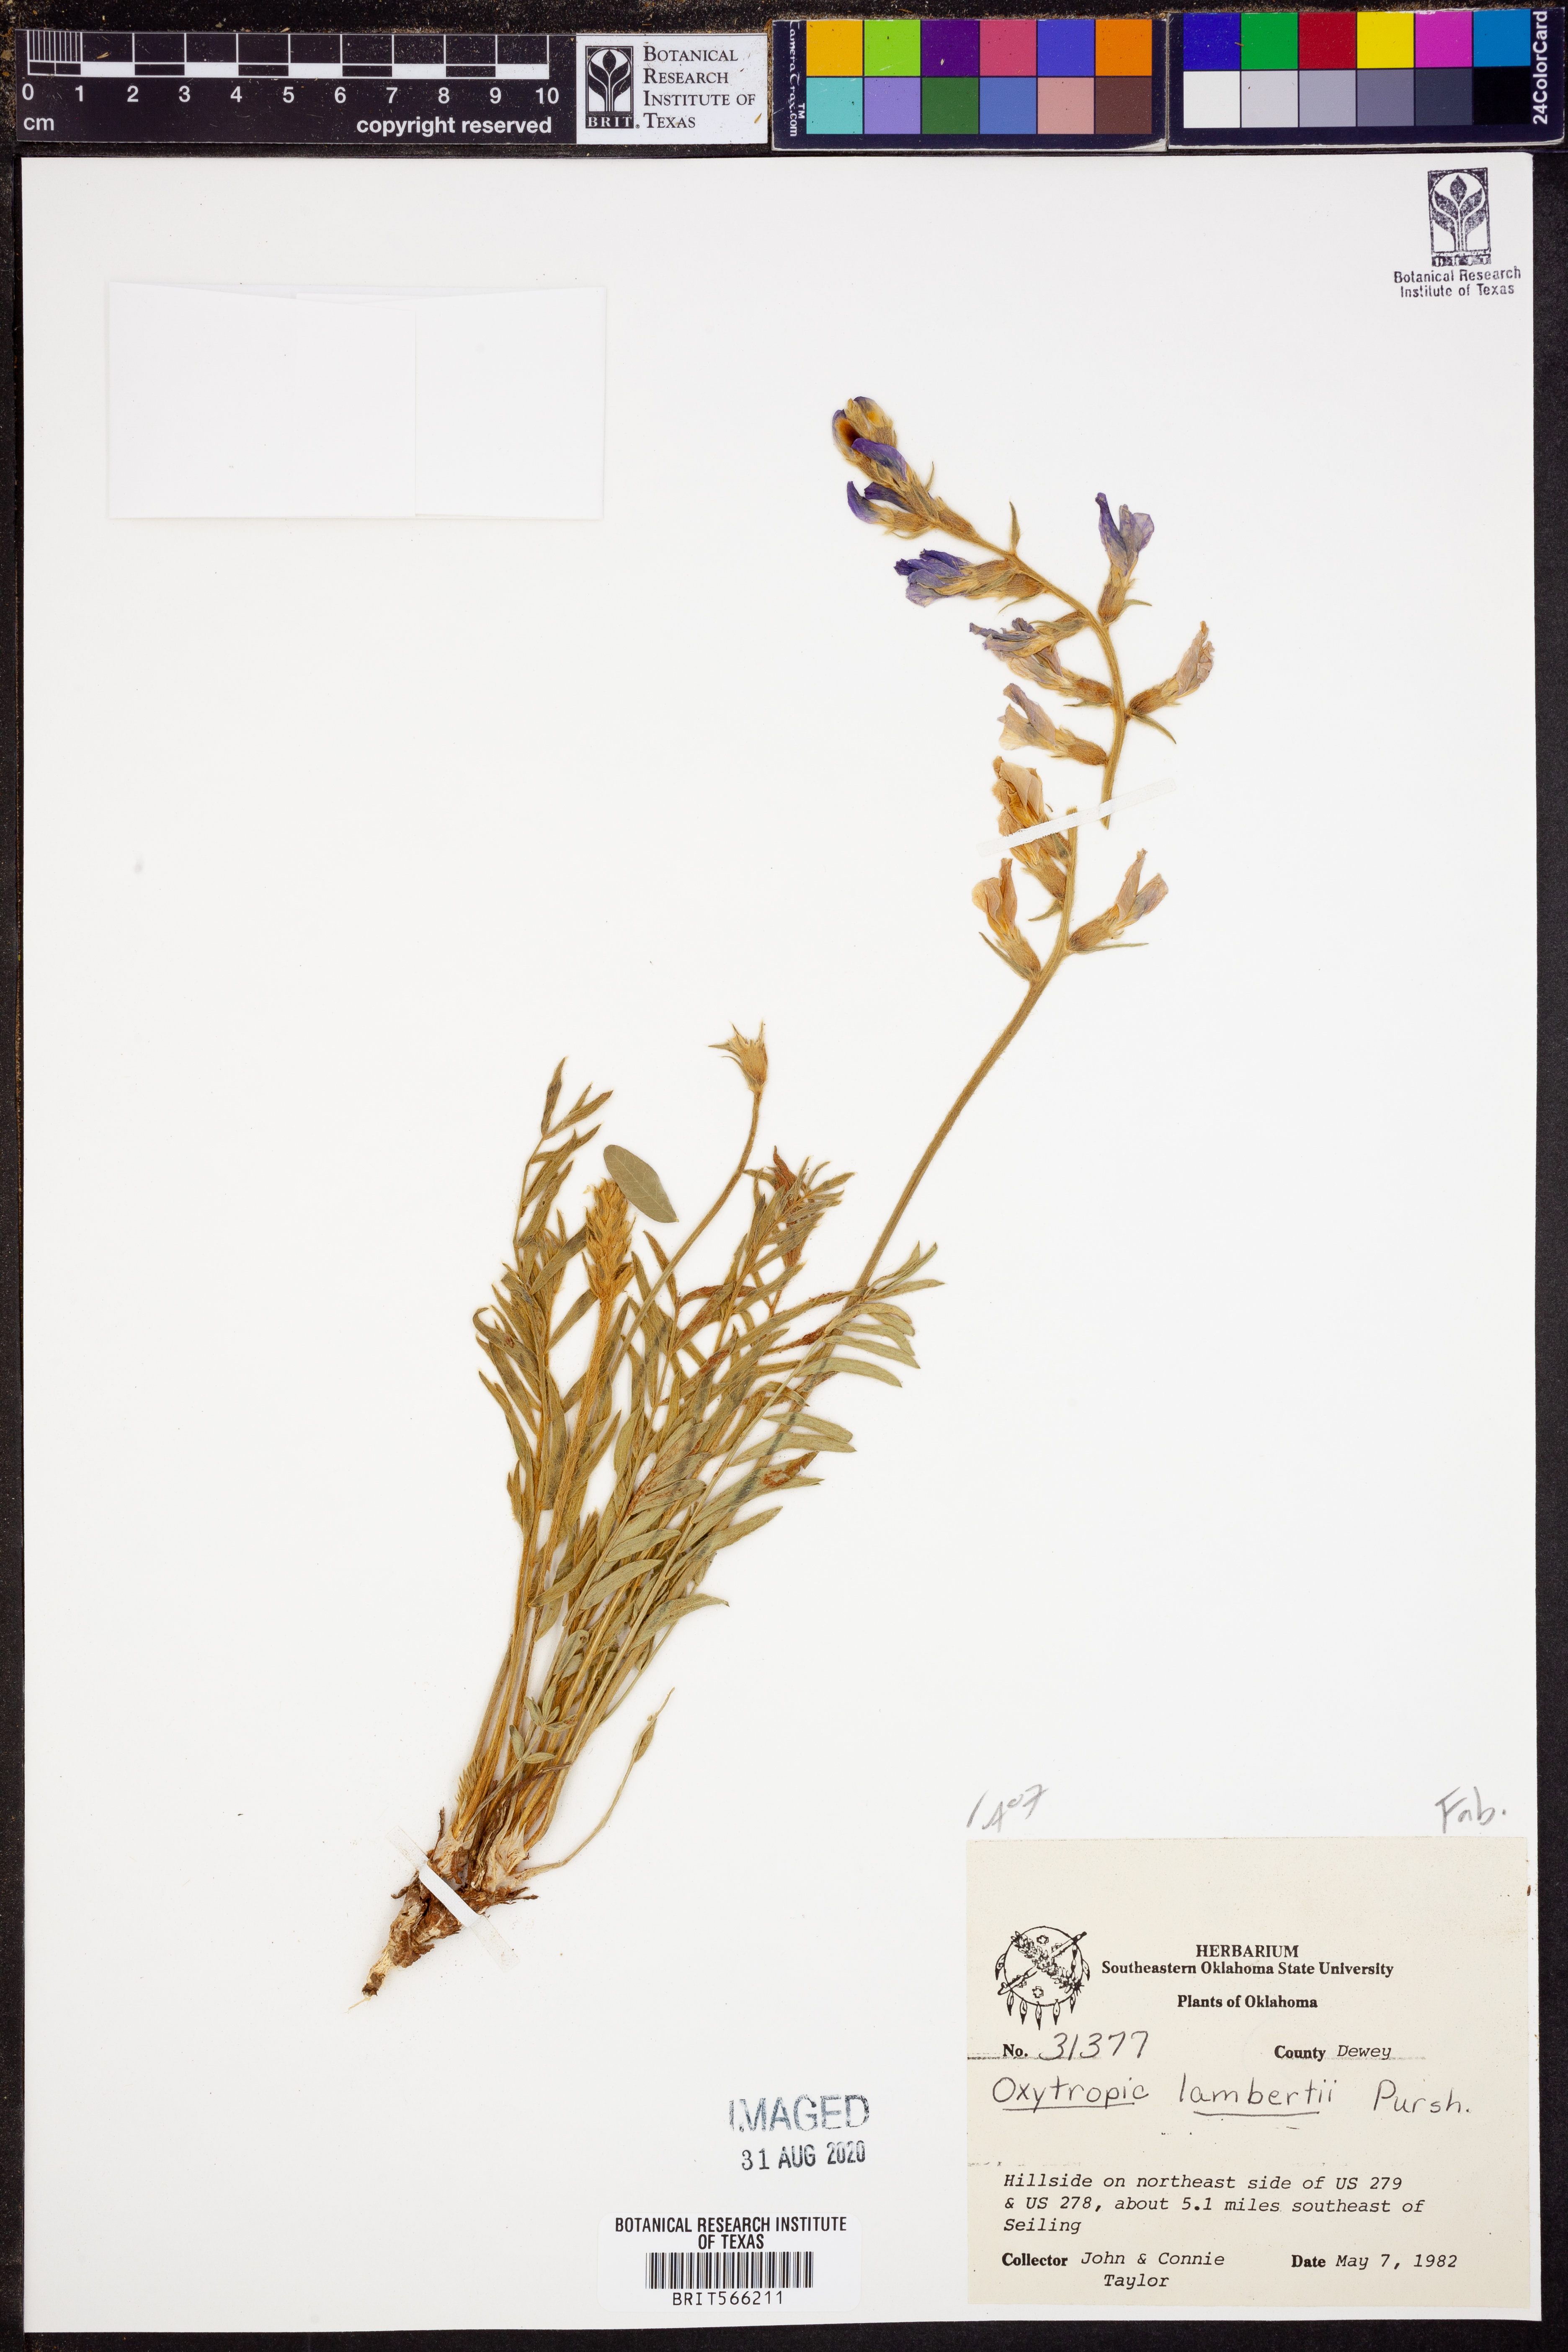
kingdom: Plantae
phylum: Tracheophyta
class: Magnoliopsida
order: Fabales
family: Fabaceae
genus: Oxytropis
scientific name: Oxytropis lambertii
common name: Purple locoweed
